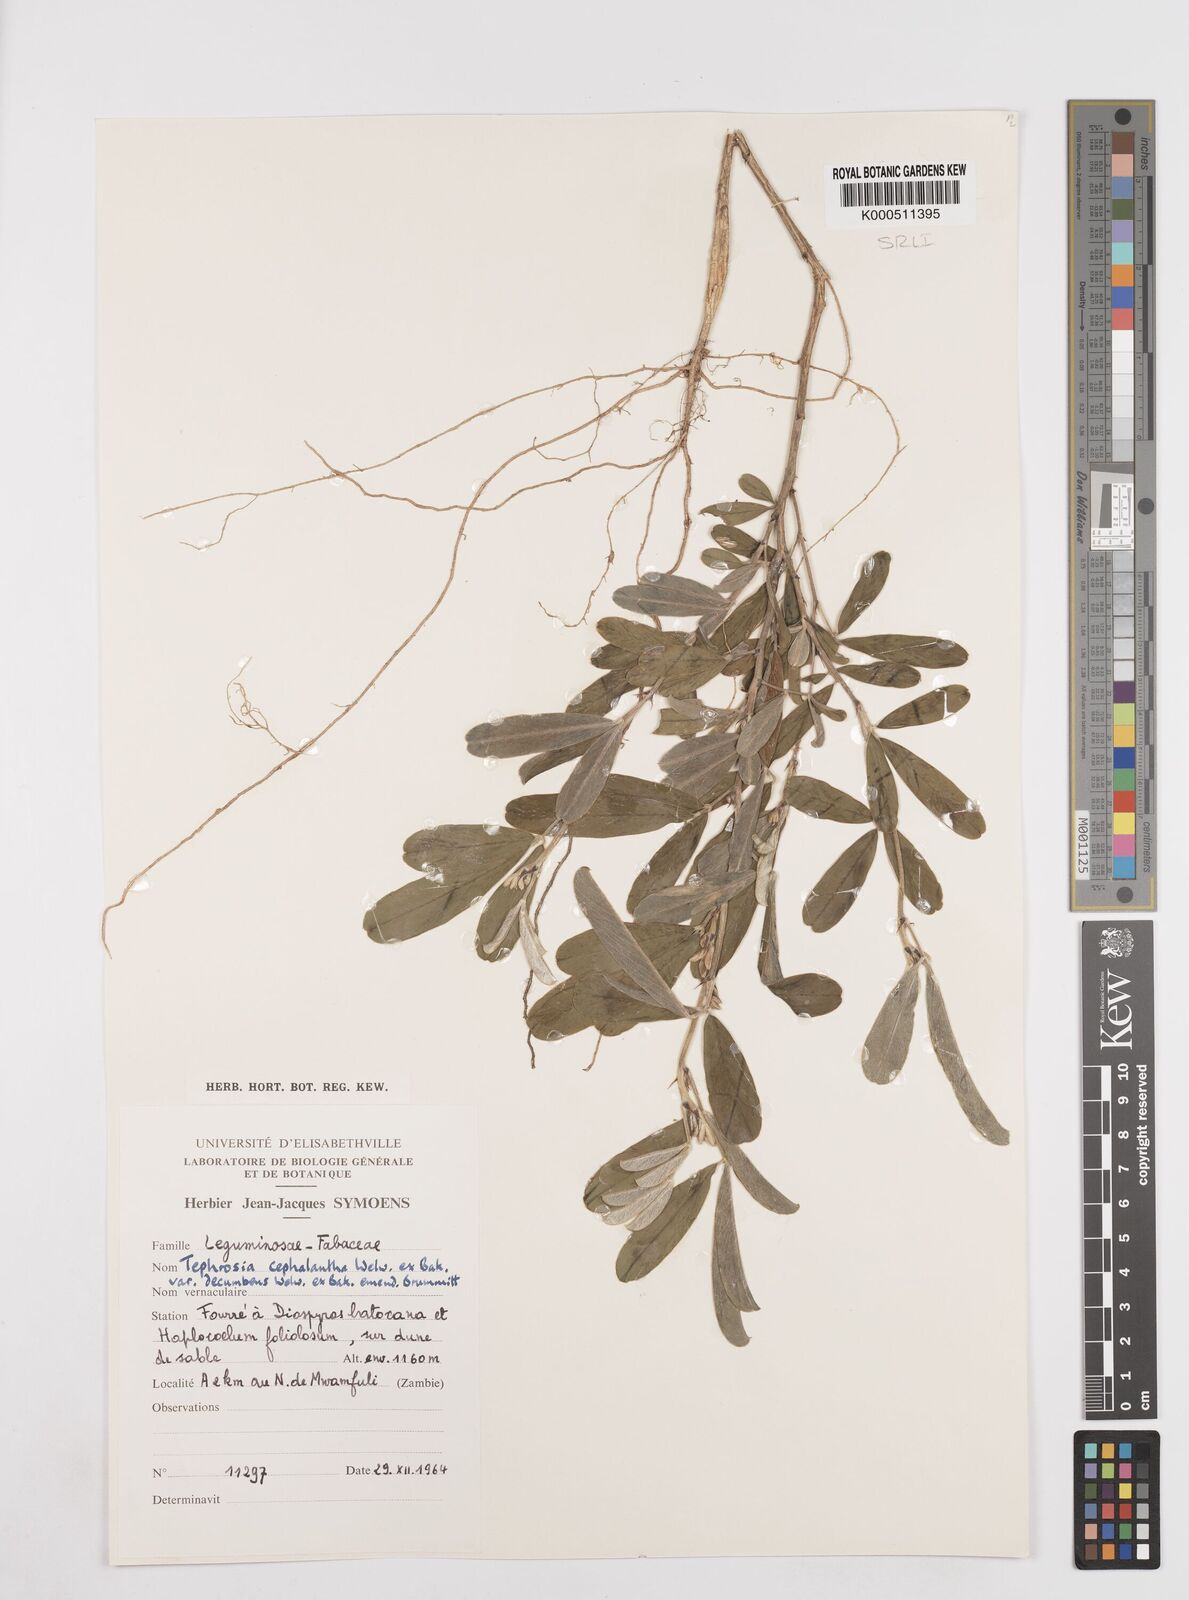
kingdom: Plantae
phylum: Tracheophyta
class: Magnoliopsida
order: Fabales
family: Fabaceae
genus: Tephrosia
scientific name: Tephrosia
